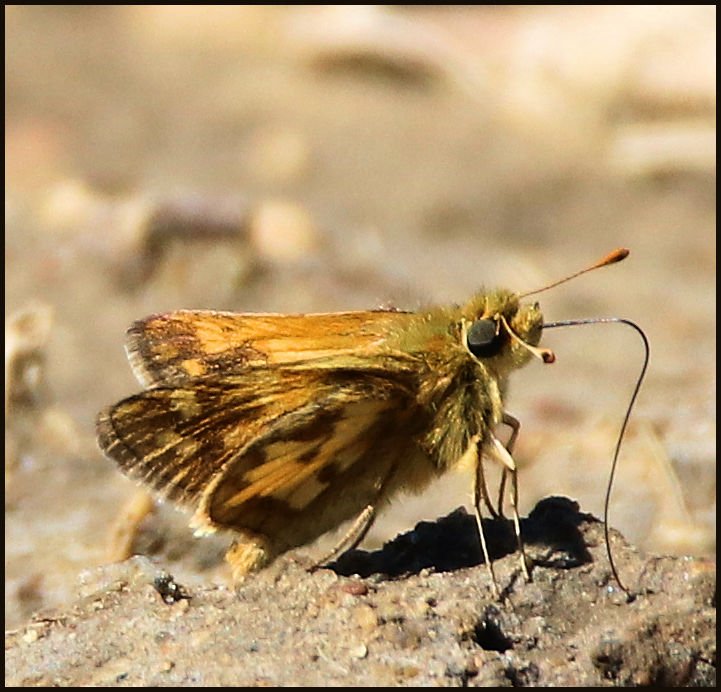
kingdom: Animalia
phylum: Arthropoda
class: Insecta
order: Lepidoptera
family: Hesperiidae
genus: Polites
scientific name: Polites coras
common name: Peck's Skipper
